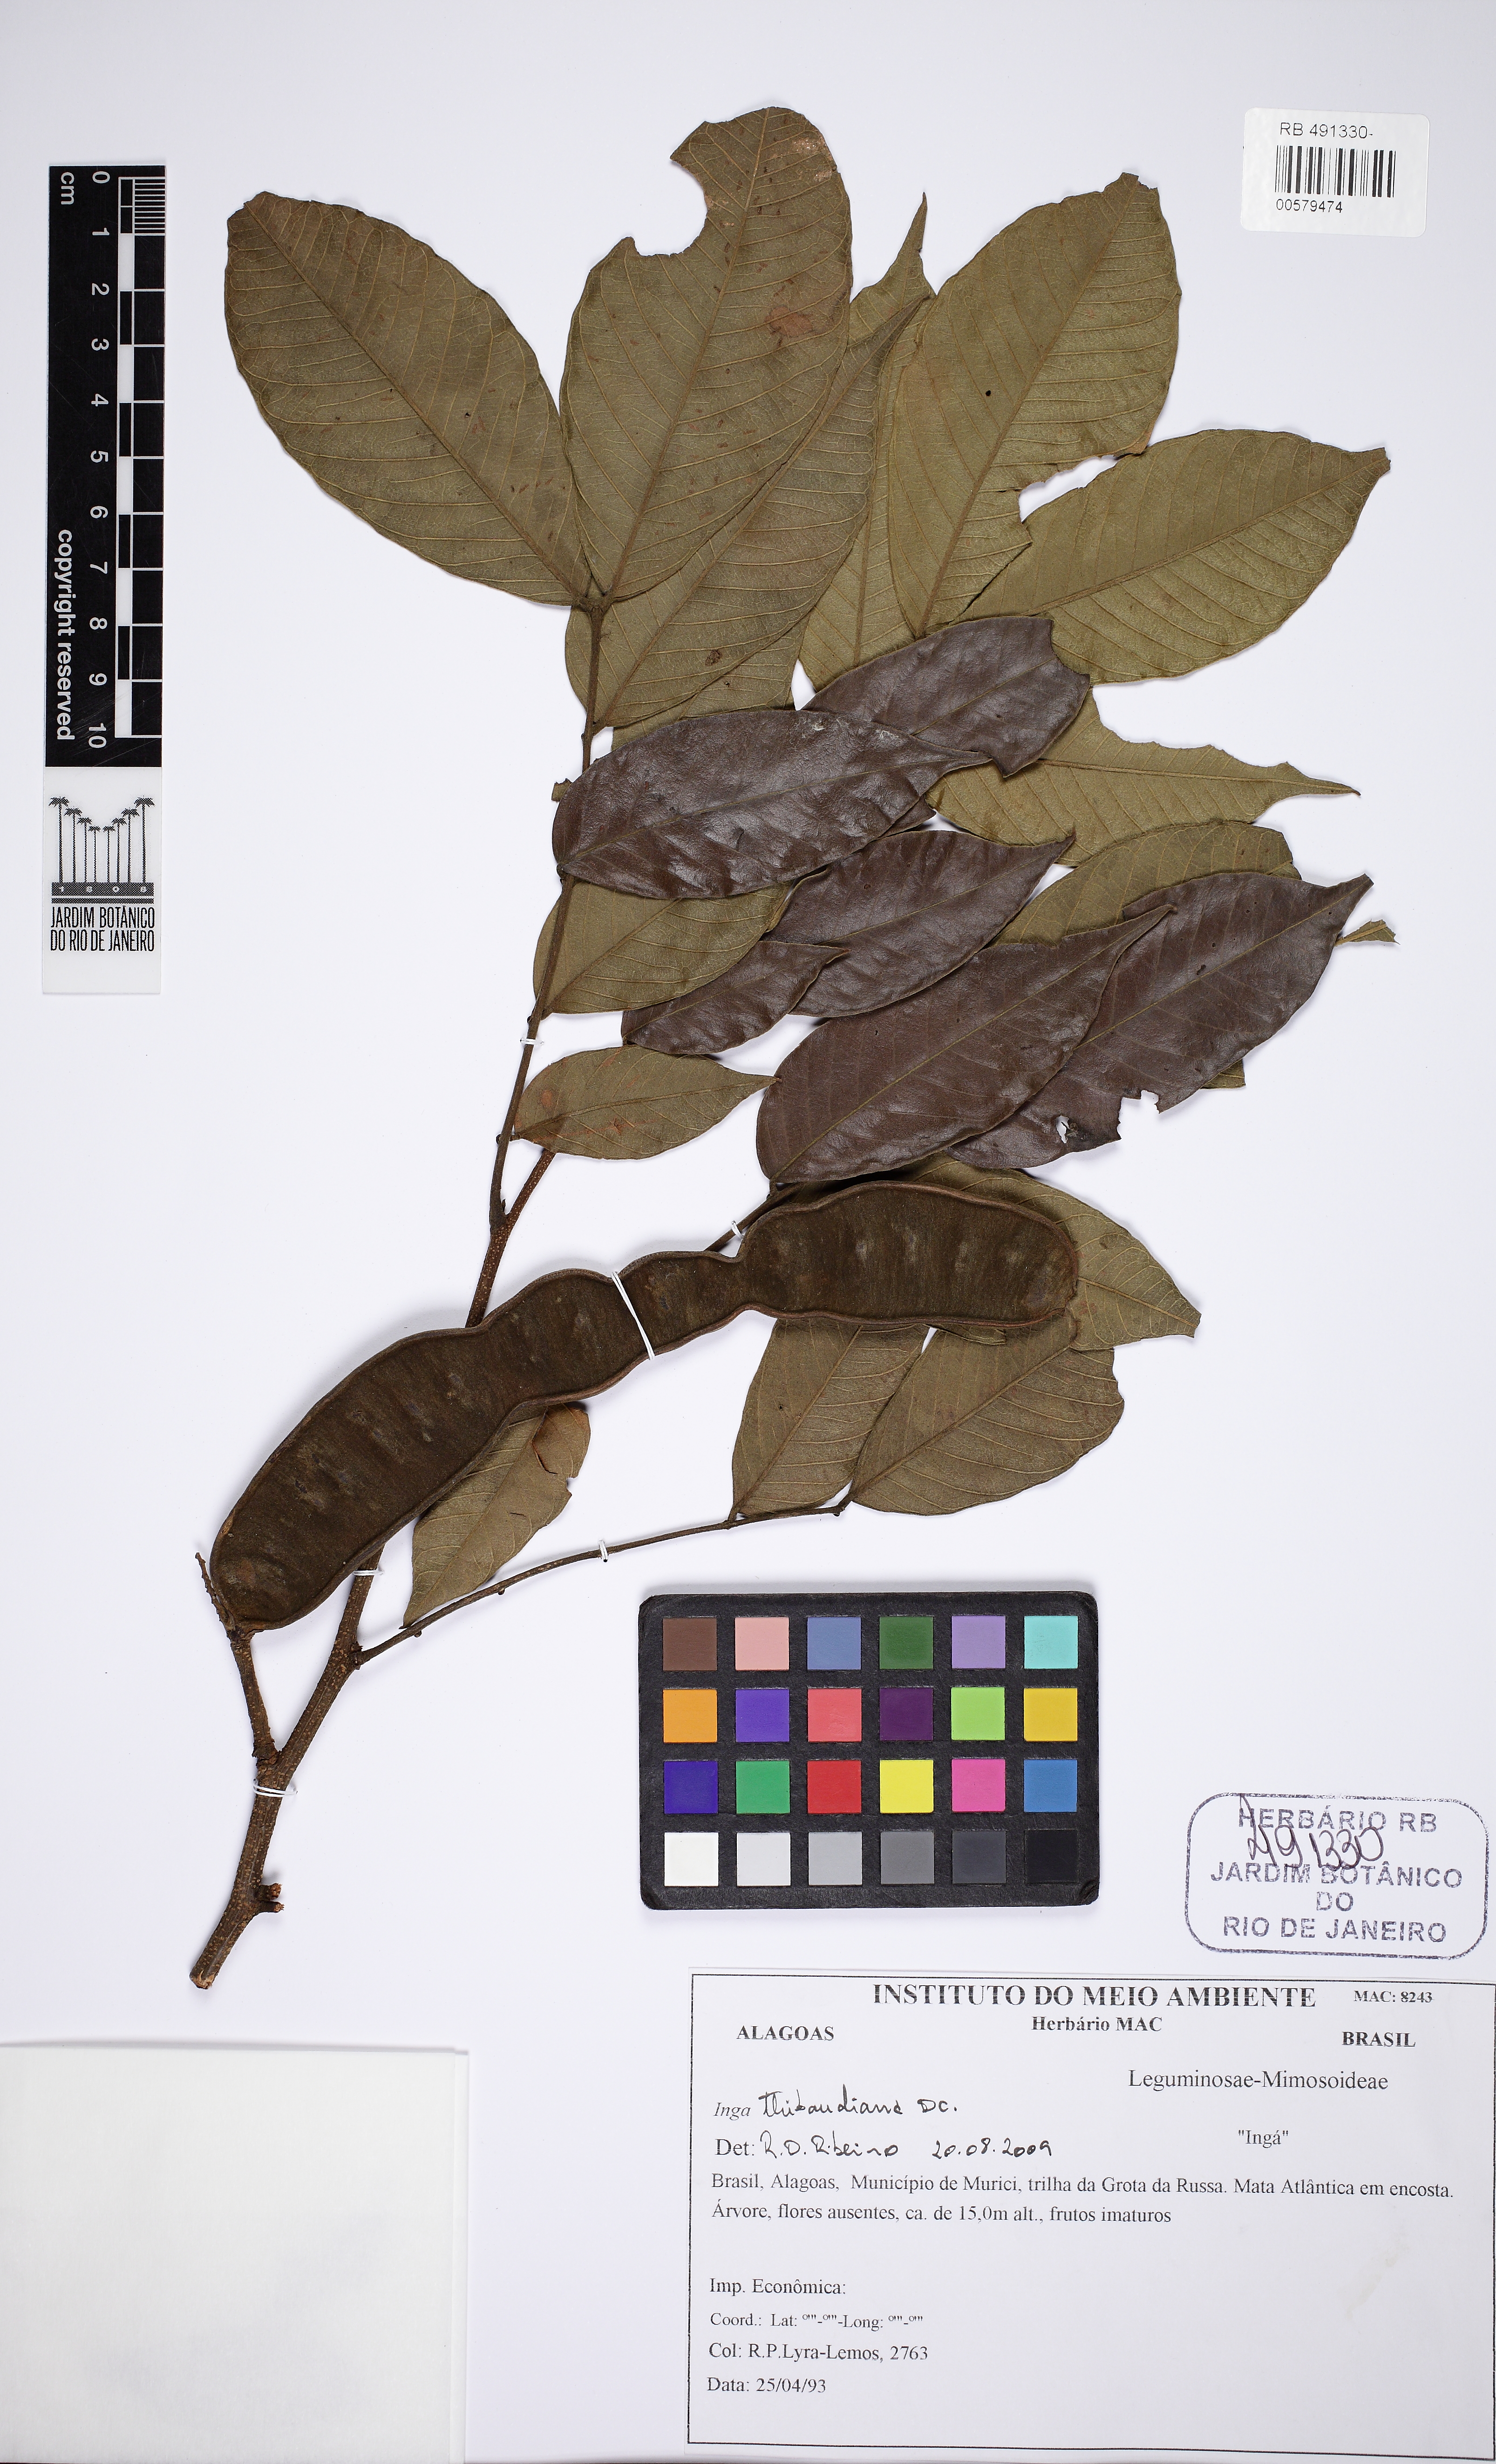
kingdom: Plantae
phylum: Tracheophyta
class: Magnoliopsida
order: Fabales
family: Fabaceae
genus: Inga
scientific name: Inga thibaudiana
